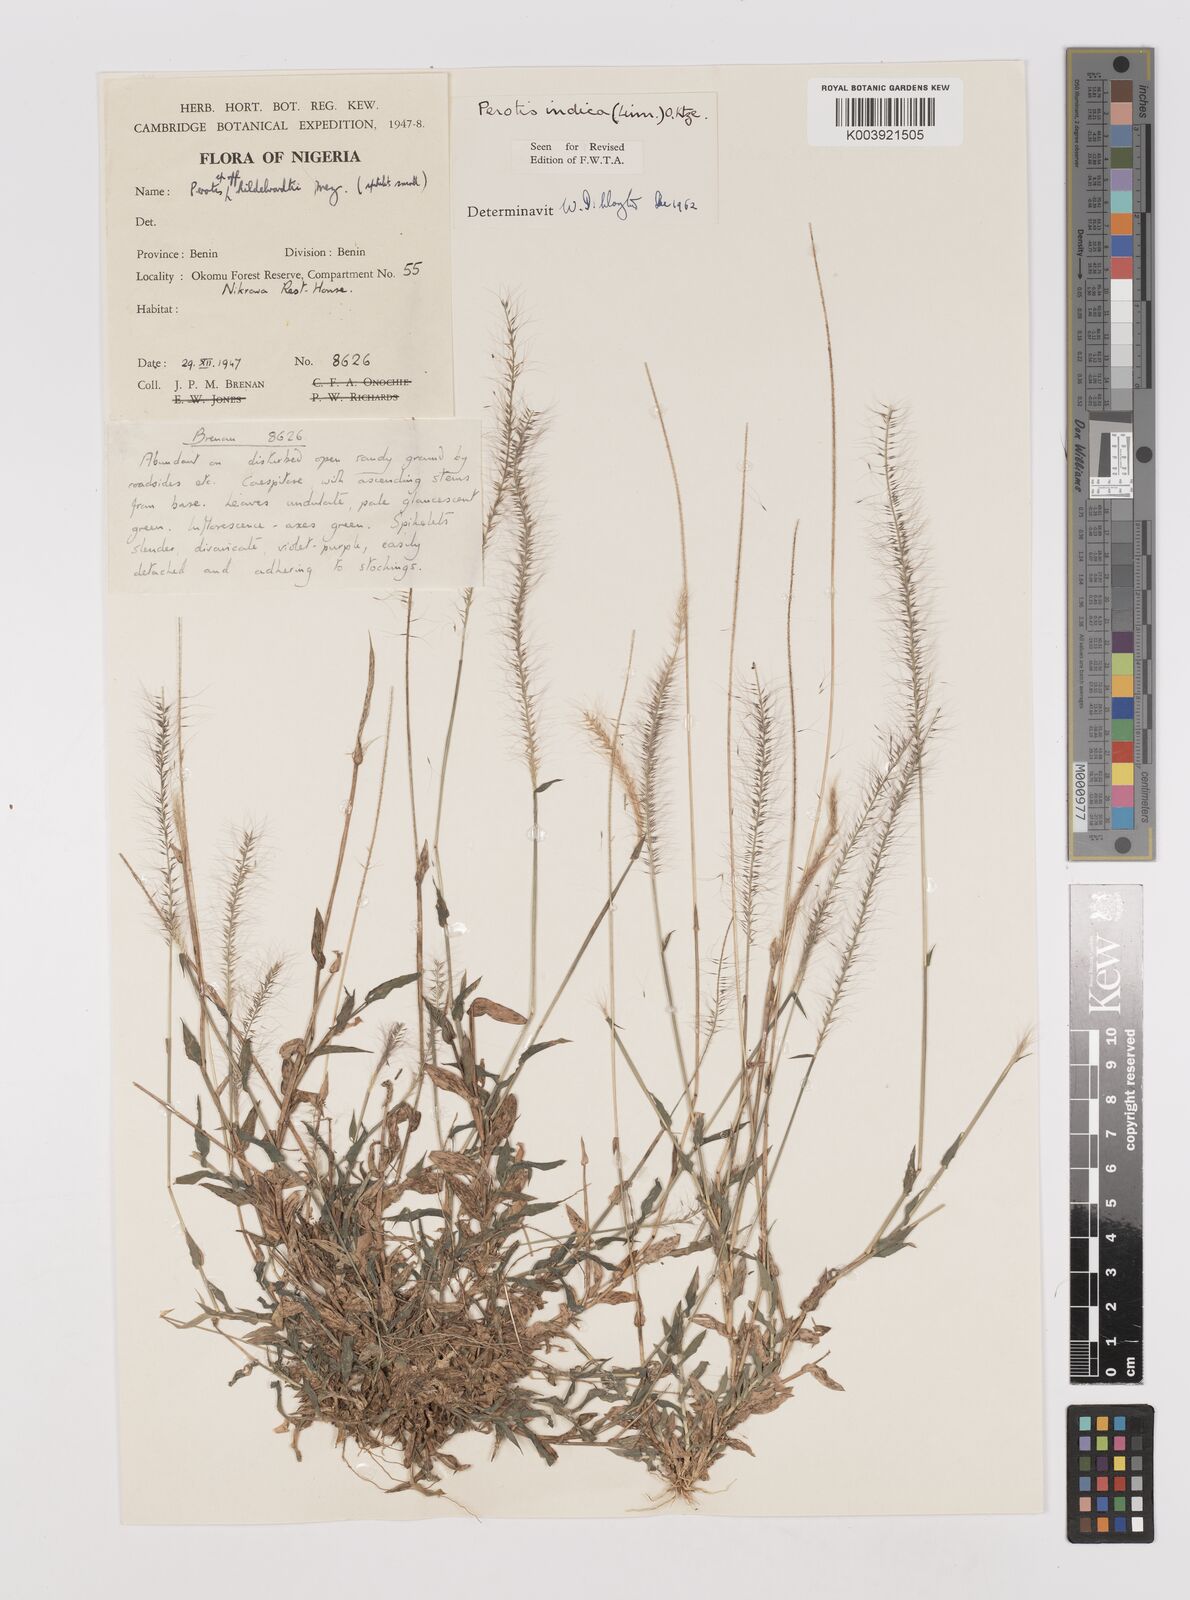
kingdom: Plantae
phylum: Tracheophyta
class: Liliopsida
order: Poales
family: Poaceae
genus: Perotis
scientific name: Perotis indica
